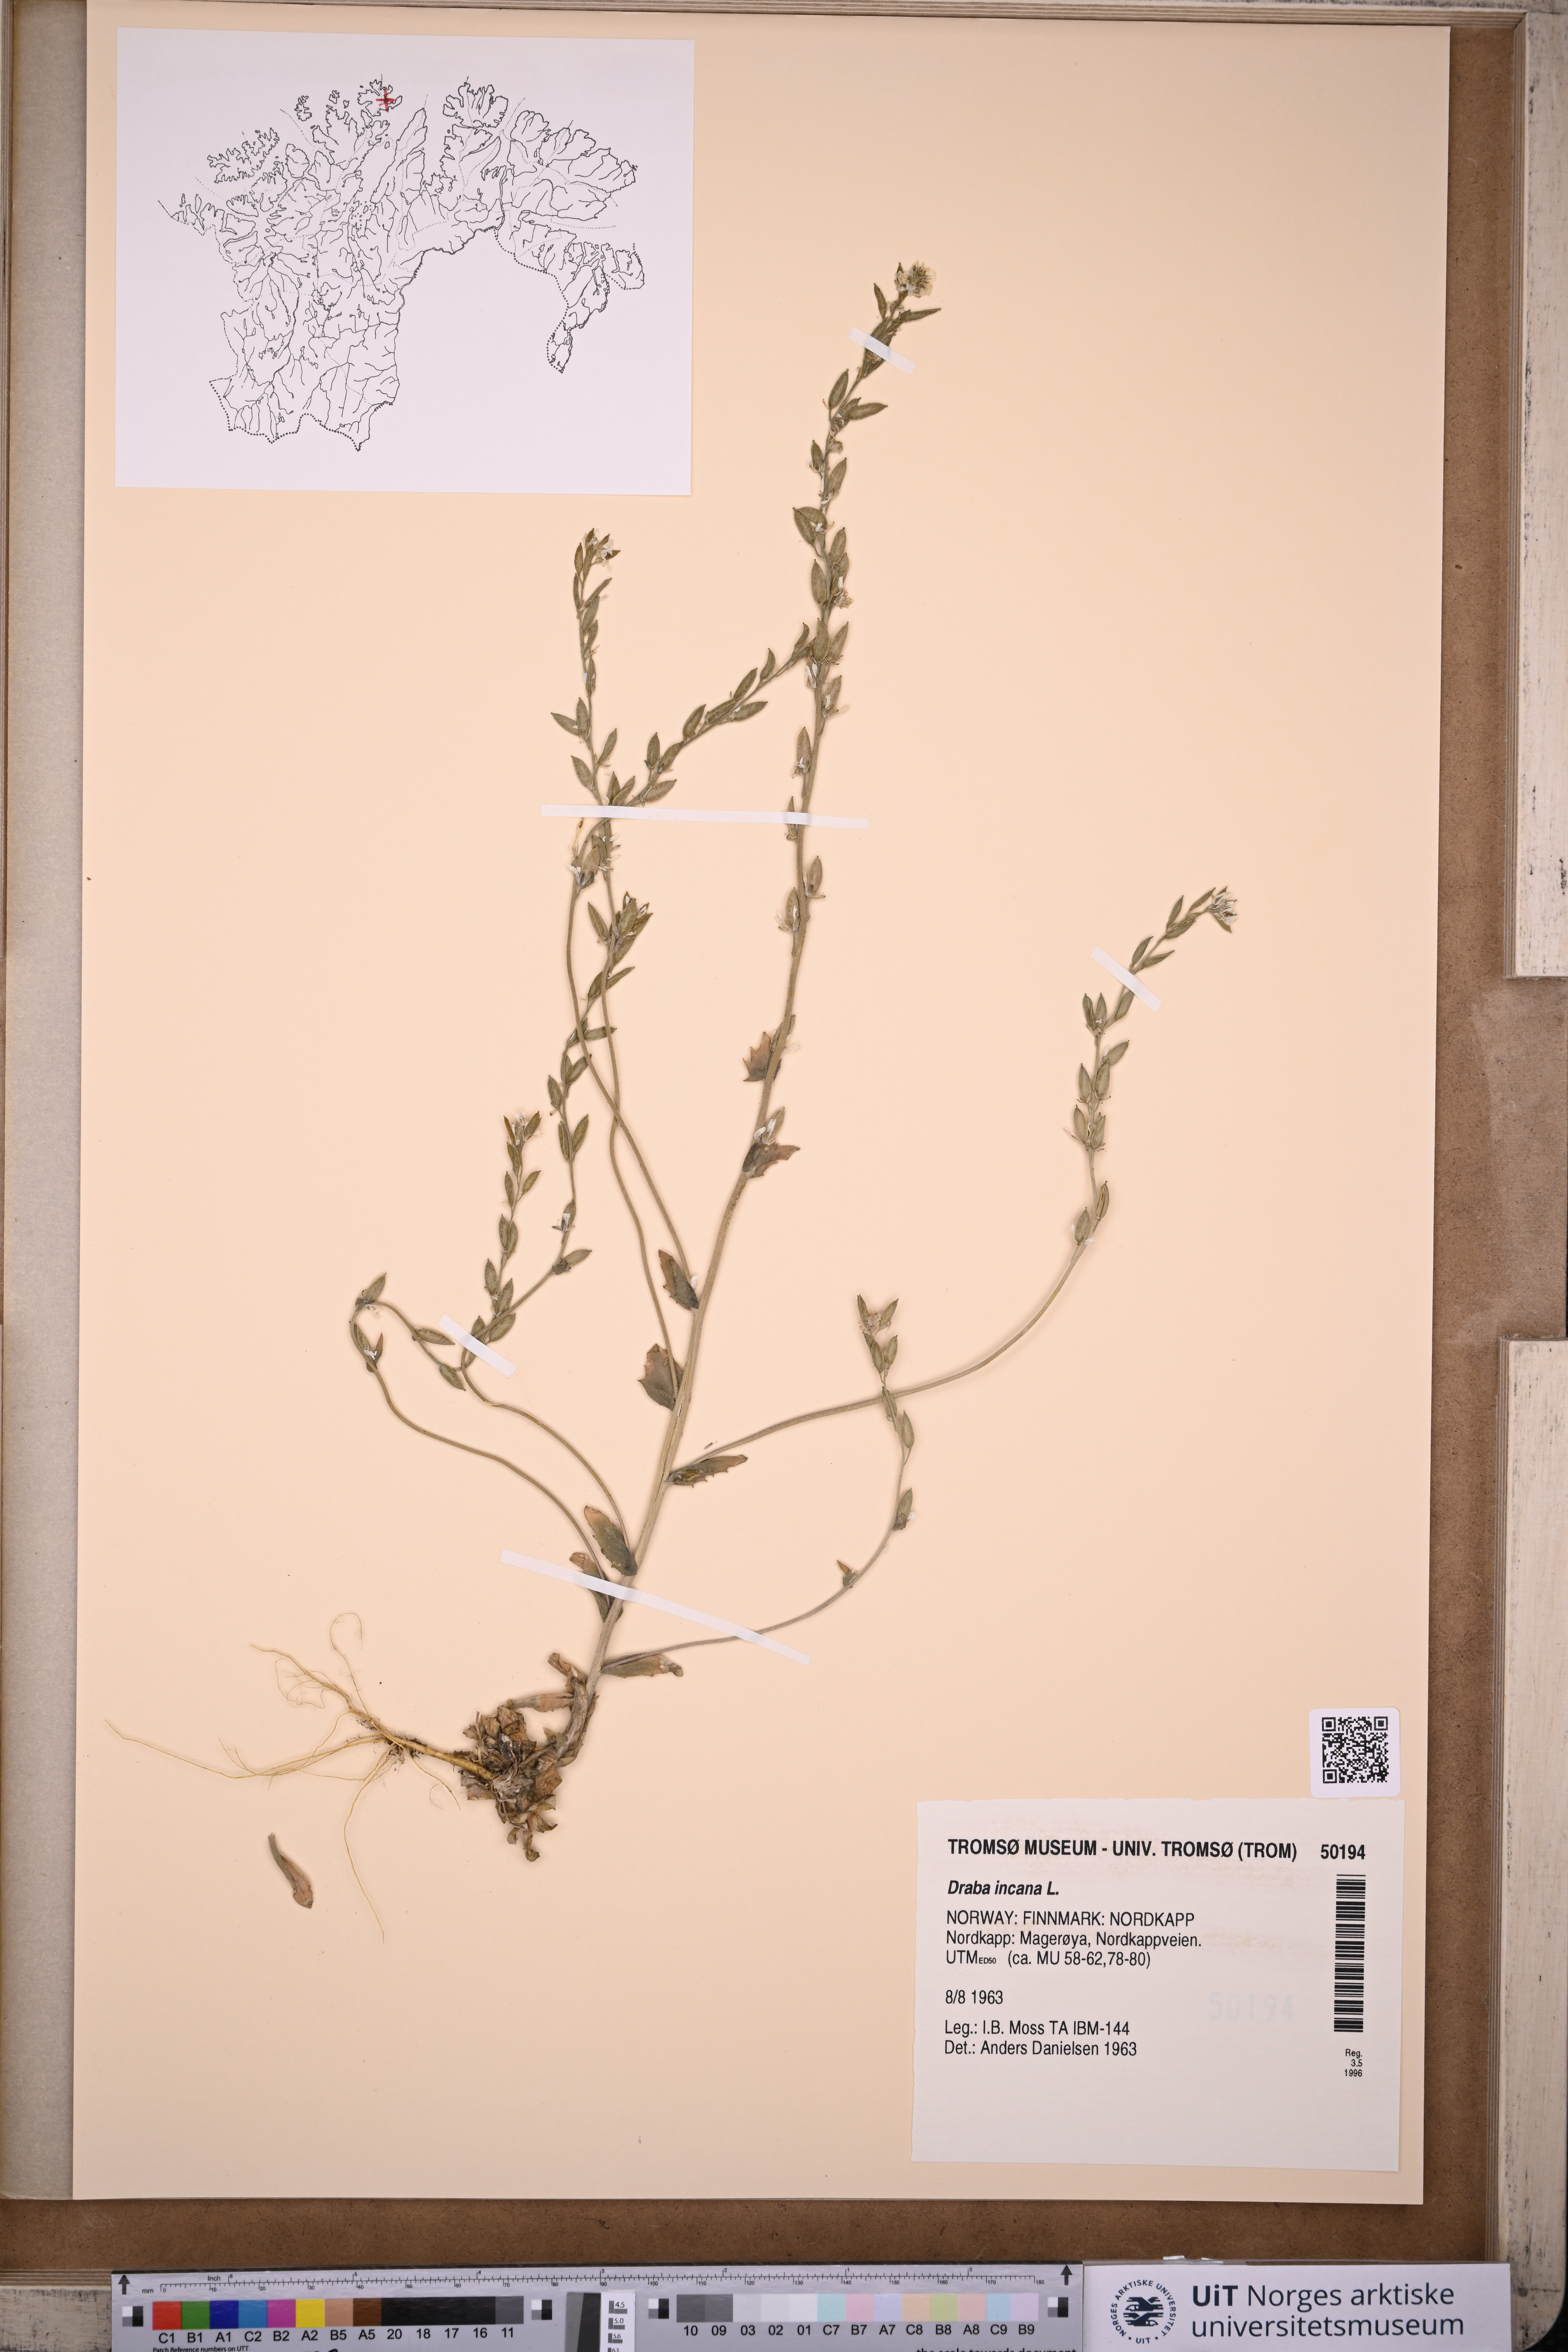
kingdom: Plantae
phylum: Tracheophyta
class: Magnoliopsida
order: Brassicales
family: Brassicaceae
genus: Draba
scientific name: Draba incana
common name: Hoary whitlow-grass
